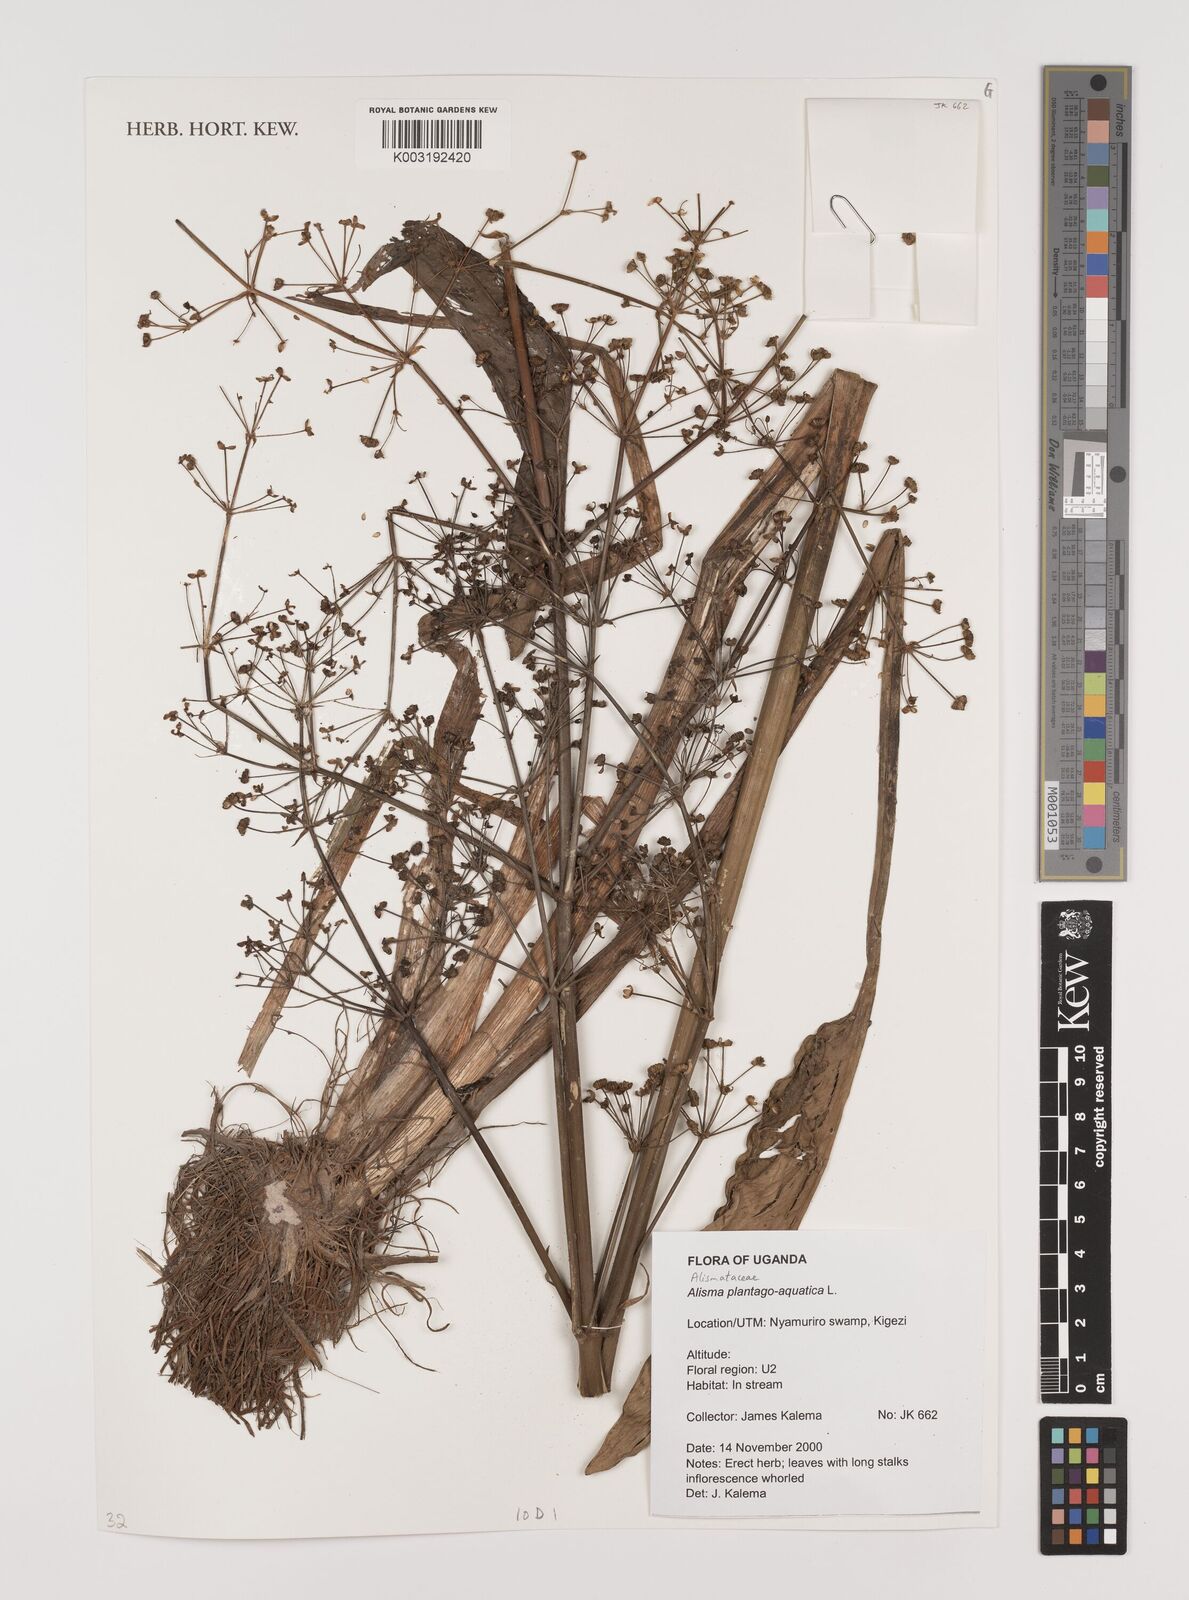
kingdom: Plantae
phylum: Tracheophyta
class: Liliopsida
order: Alismatales
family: Alismataceae
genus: Alisma
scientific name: Alisma plantago-aquatica
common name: Water-plantain
